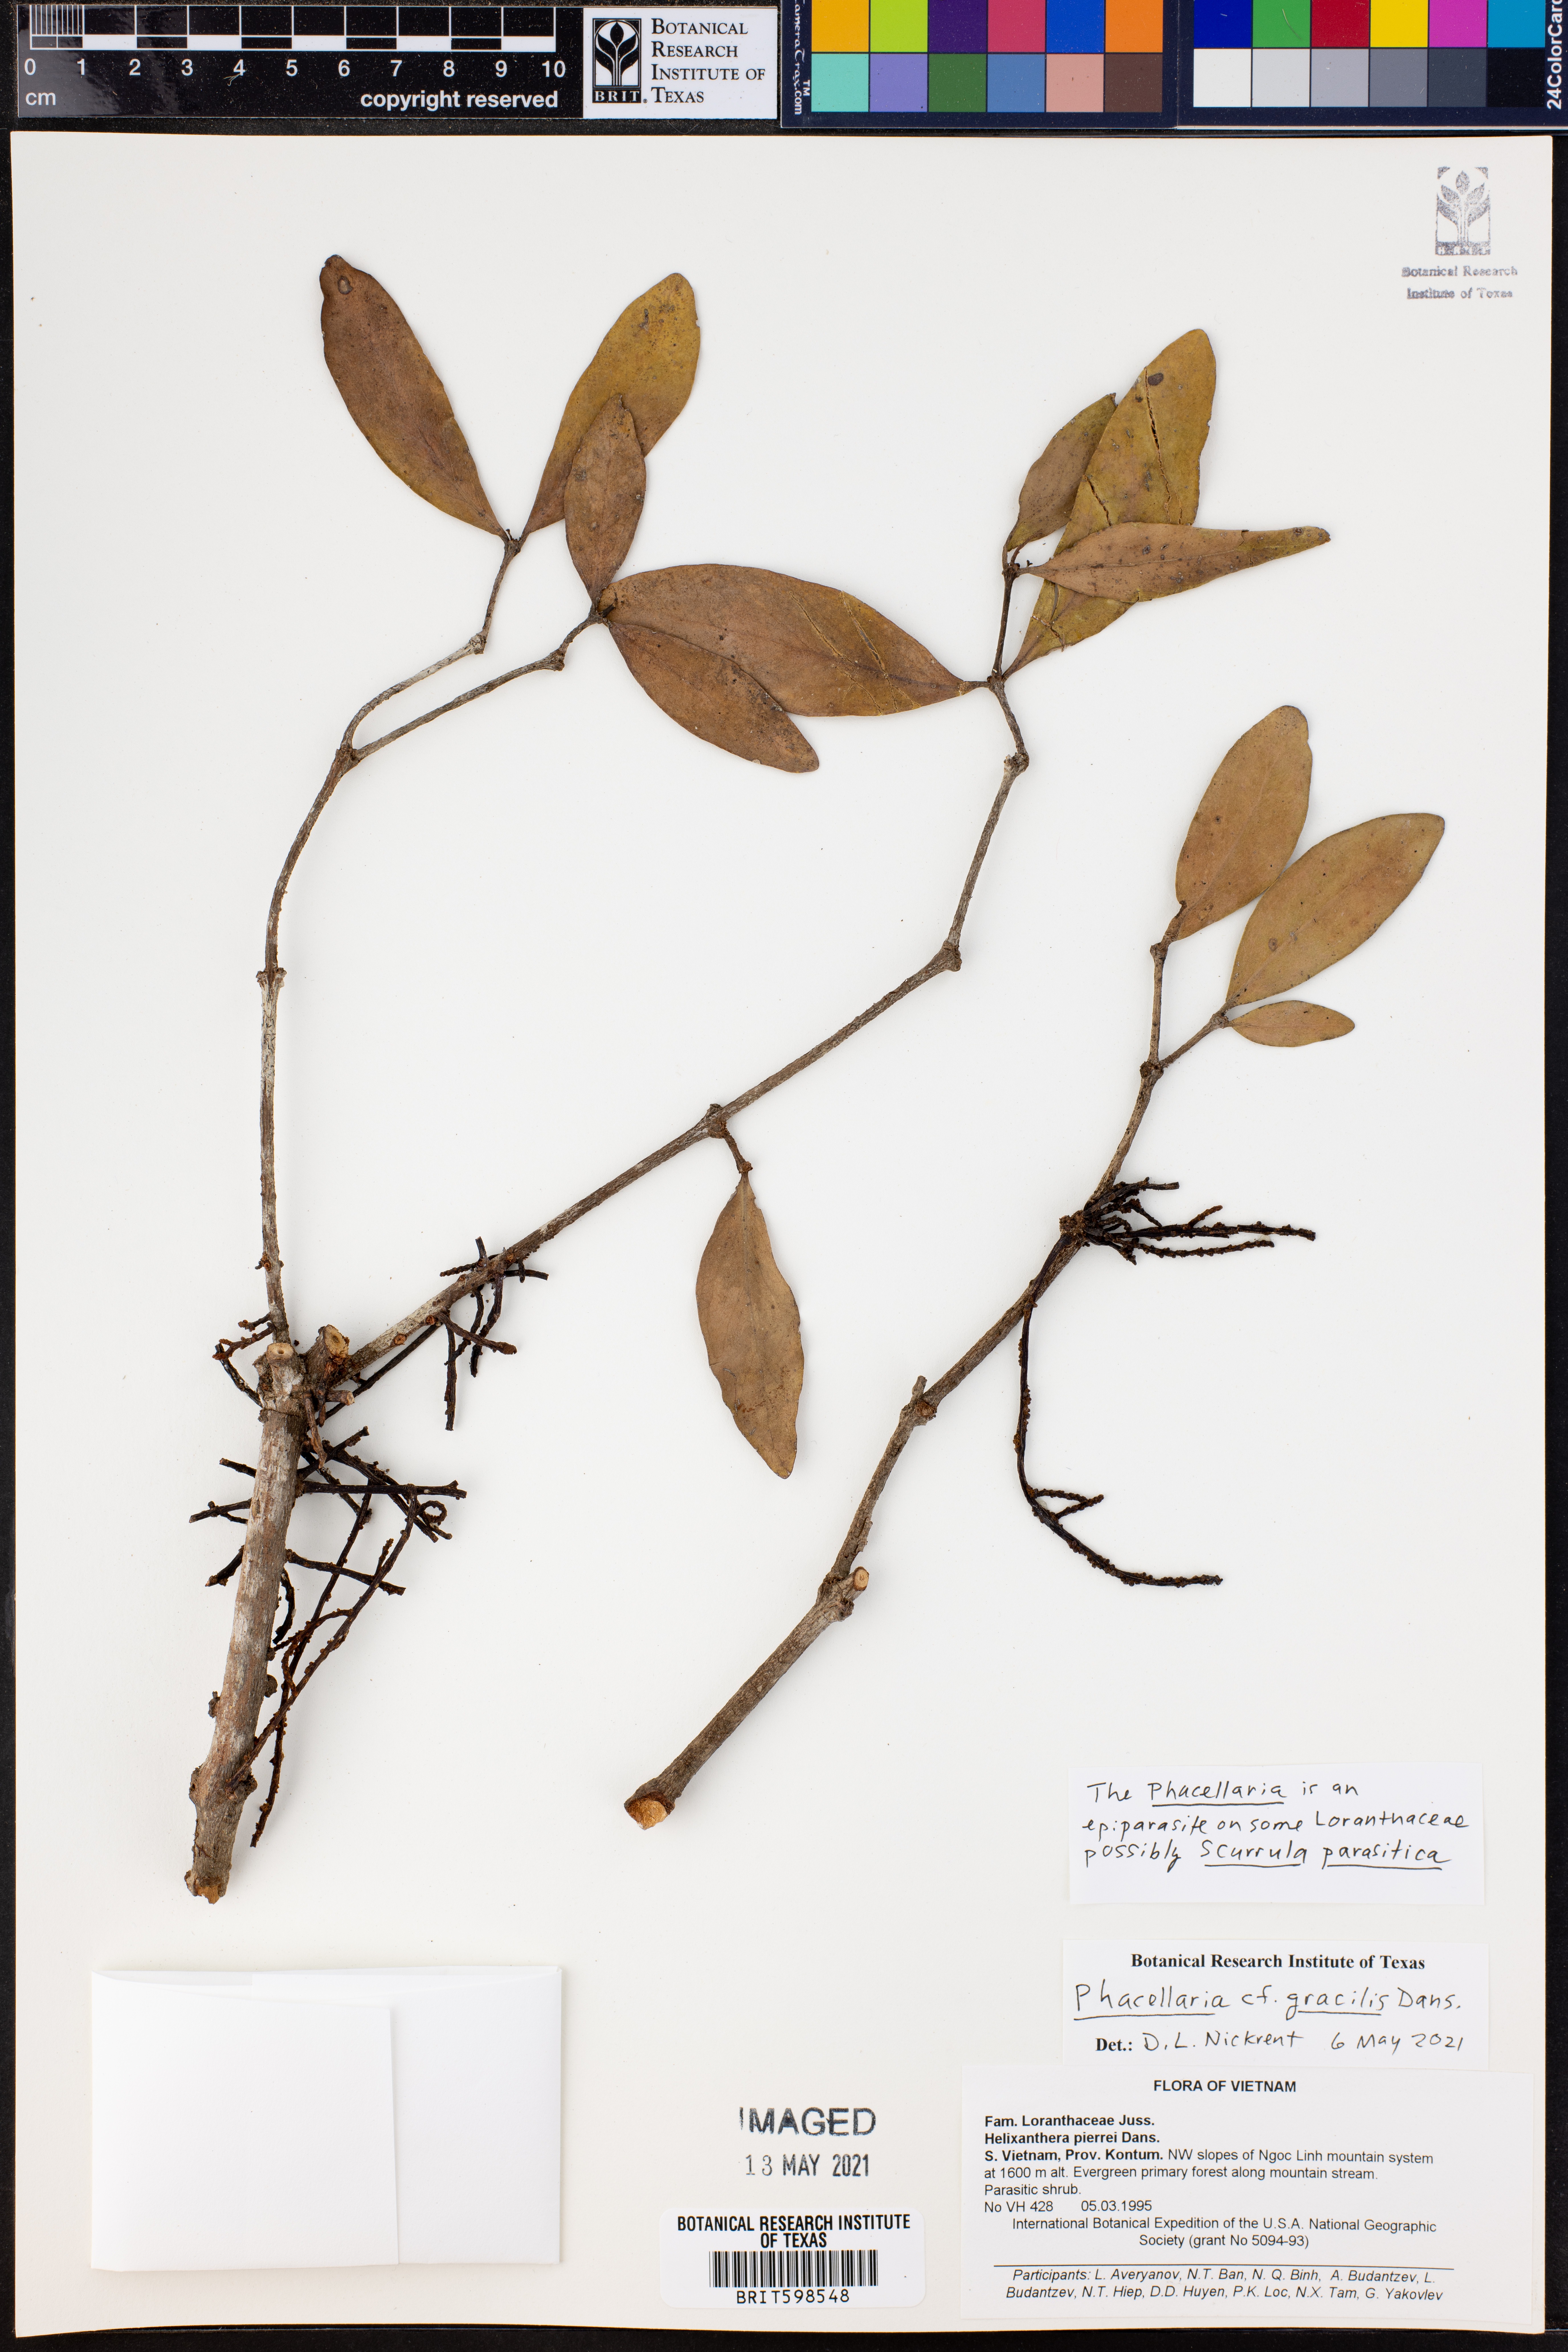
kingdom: Plantae
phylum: Tracheophyta
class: Magnoliopsida
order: Santalales
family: Amphorogynaceae
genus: Phacellaria
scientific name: Phacellaria
